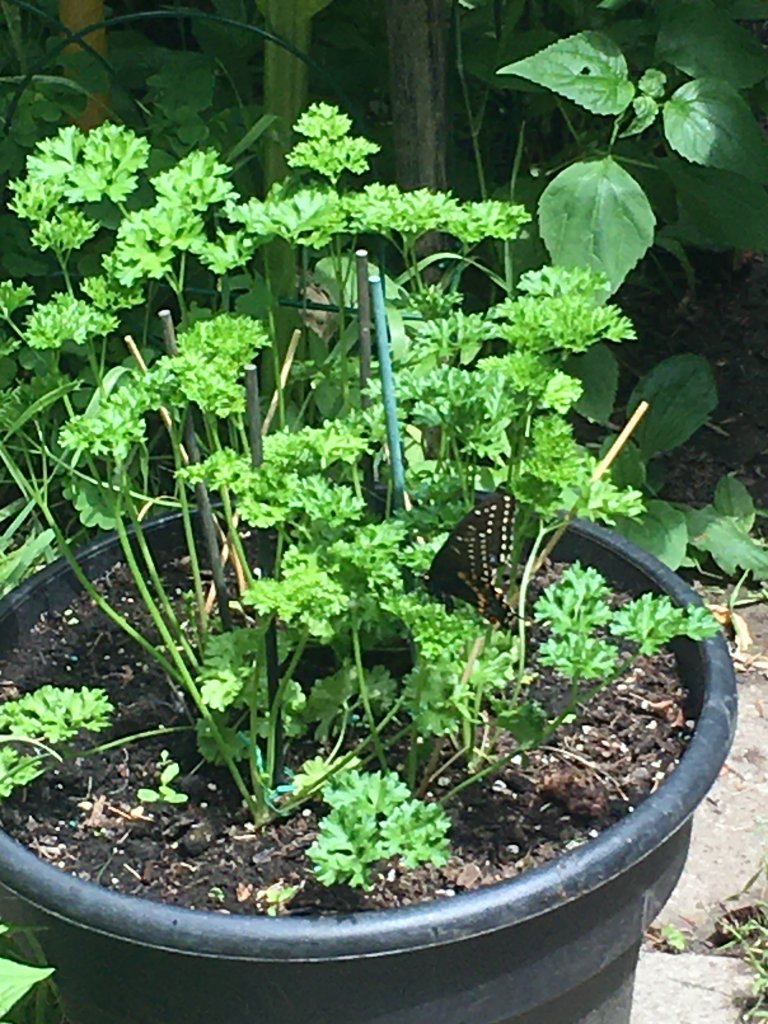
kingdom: Animalia
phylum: Arthropoda
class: Insecta
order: Lepidoptera
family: Papilionidae
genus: Papilio
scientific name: Papilio polyxenes
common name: Black Swallowtail
